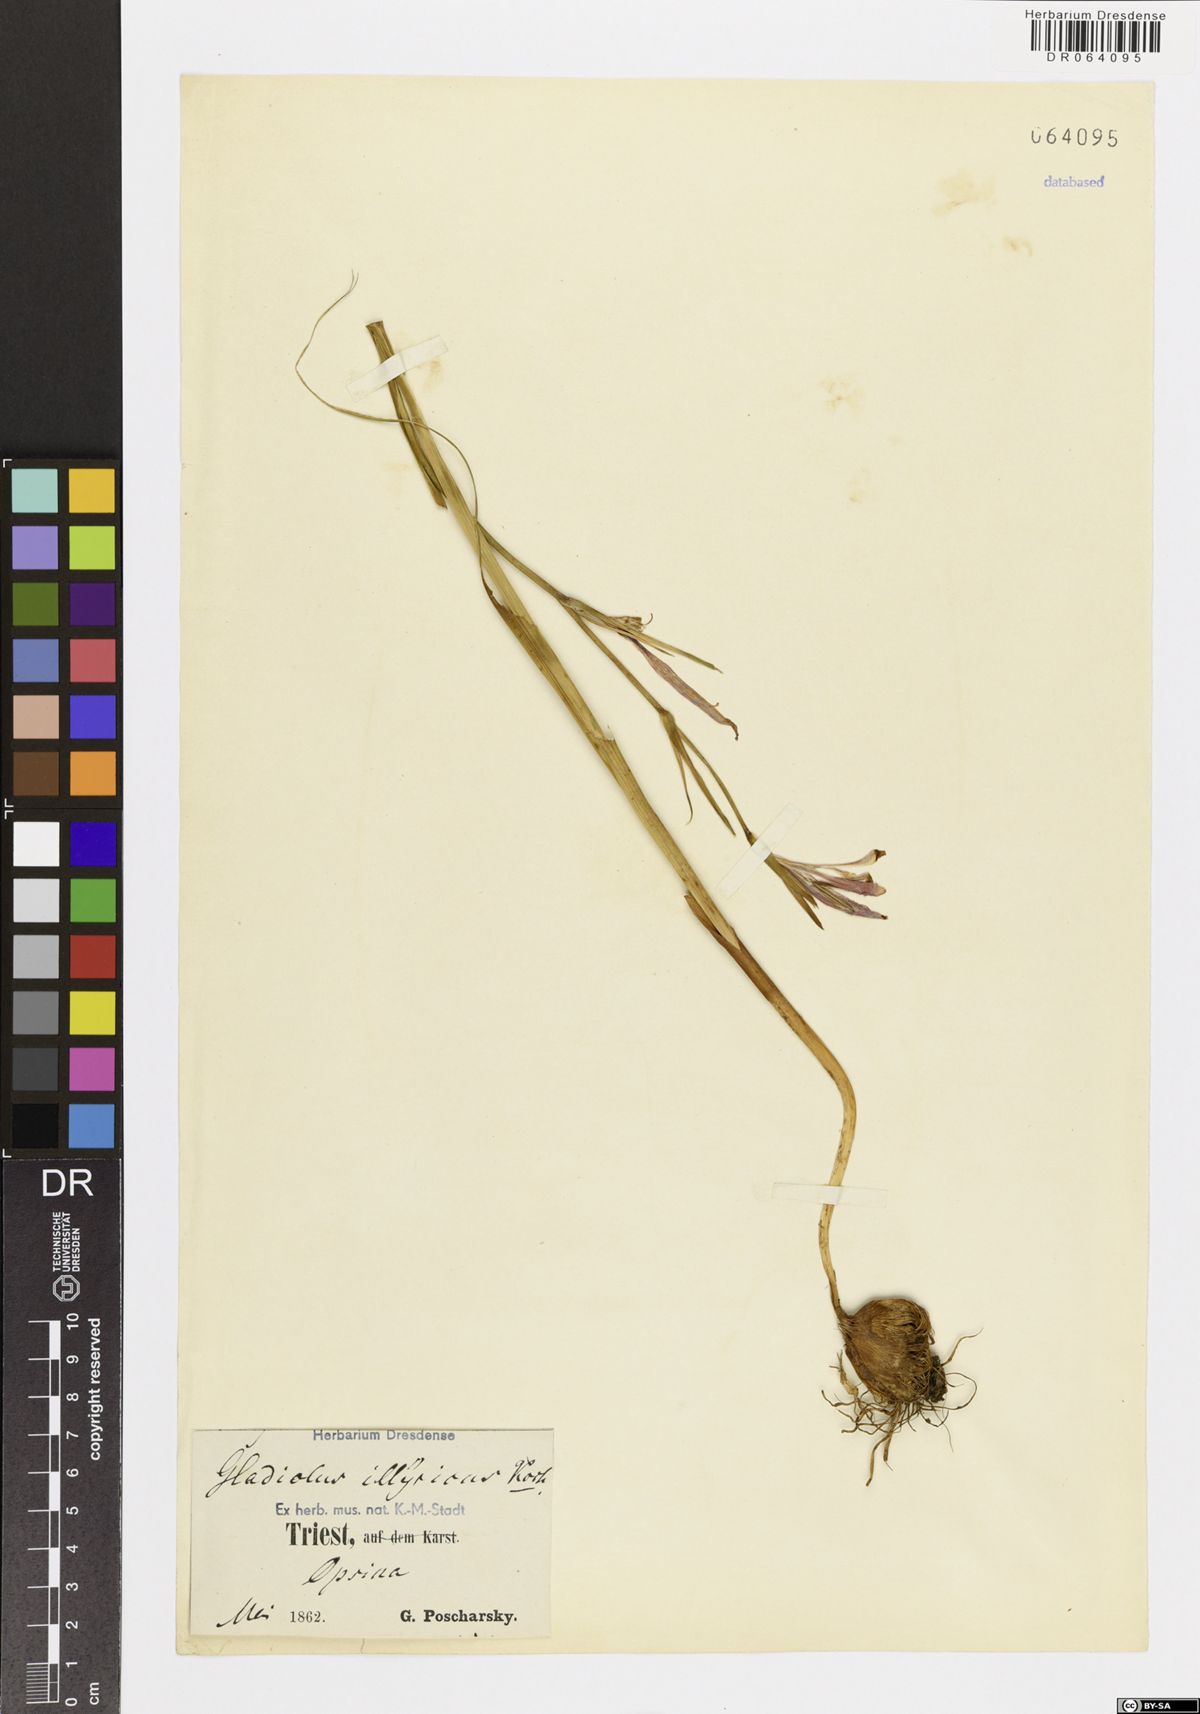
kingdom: Plantae
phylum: Tracheophyta
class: Liliopsida
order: Asparagales
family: Iridaceae
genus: Gladiolus
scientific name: Gladiolus illyricus
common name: Wild gladiolus
